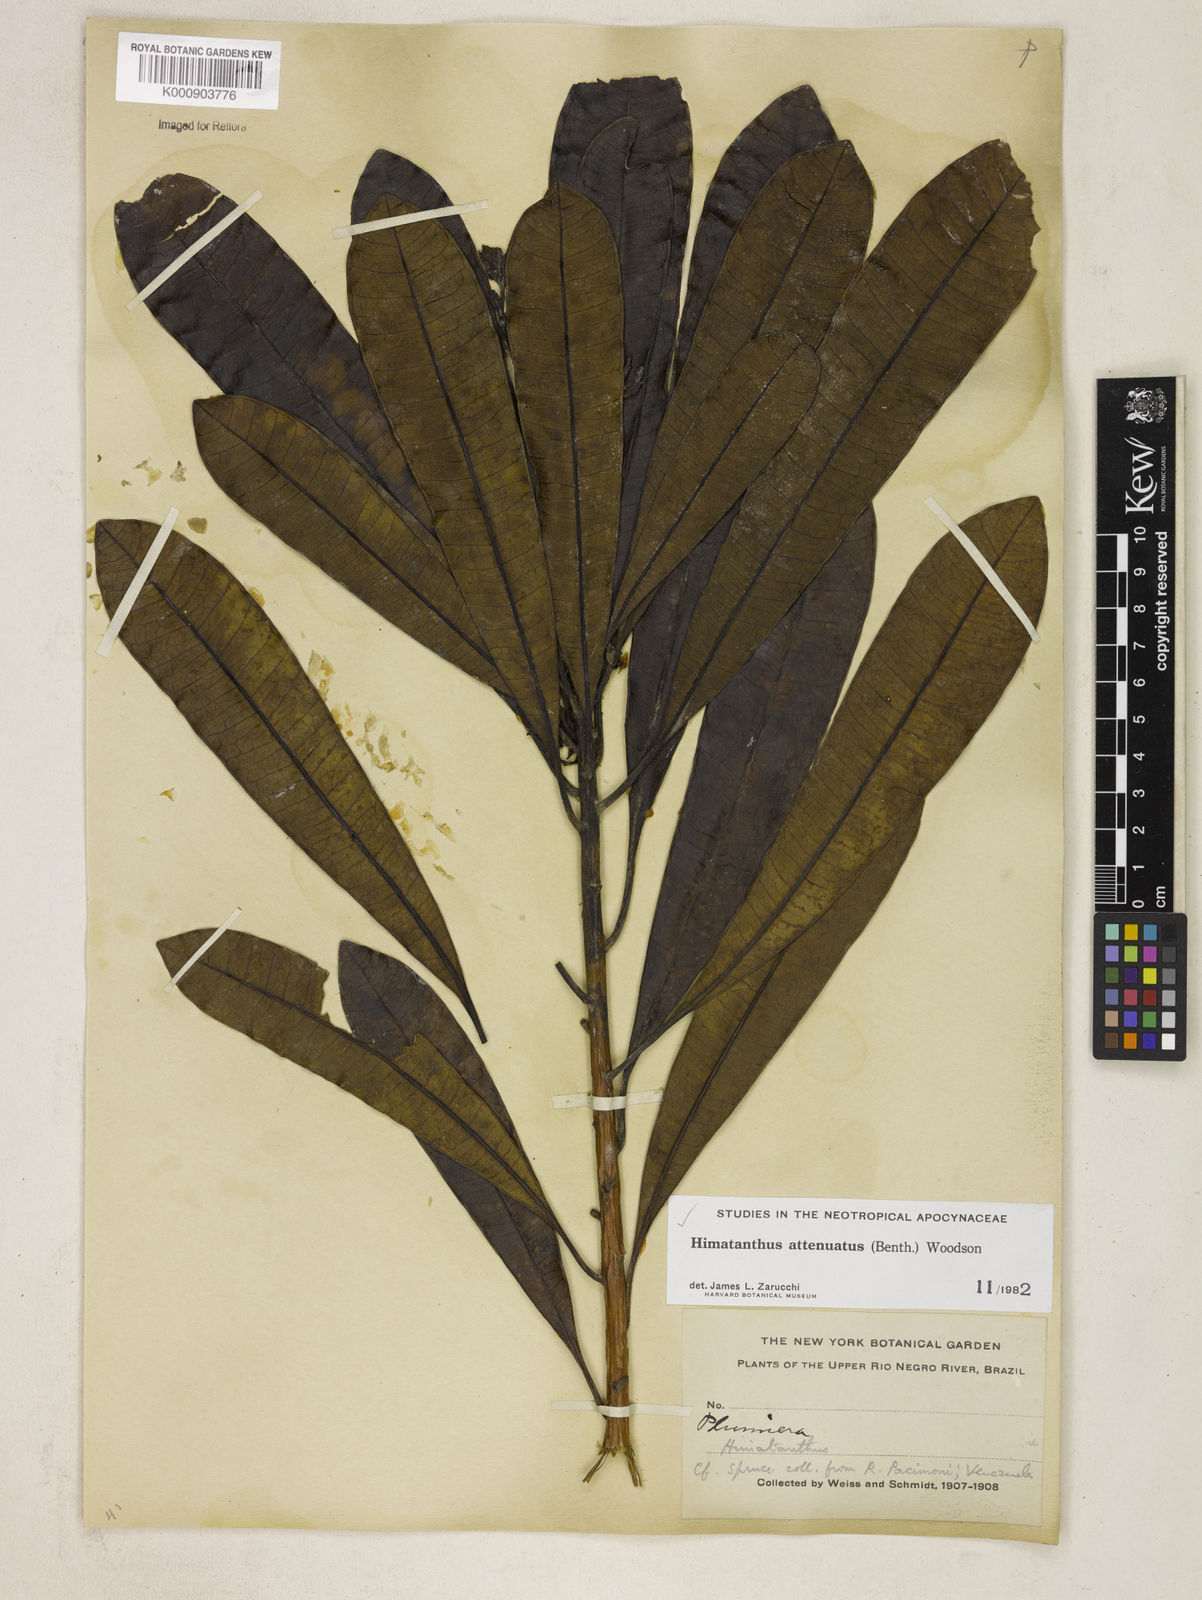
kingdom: Plantae
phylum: Tracheophyta
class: Magnoliopsida
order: Gentianales
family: Apocynaceae
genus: Himatanthus
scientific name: Himatanthus attenuatus
